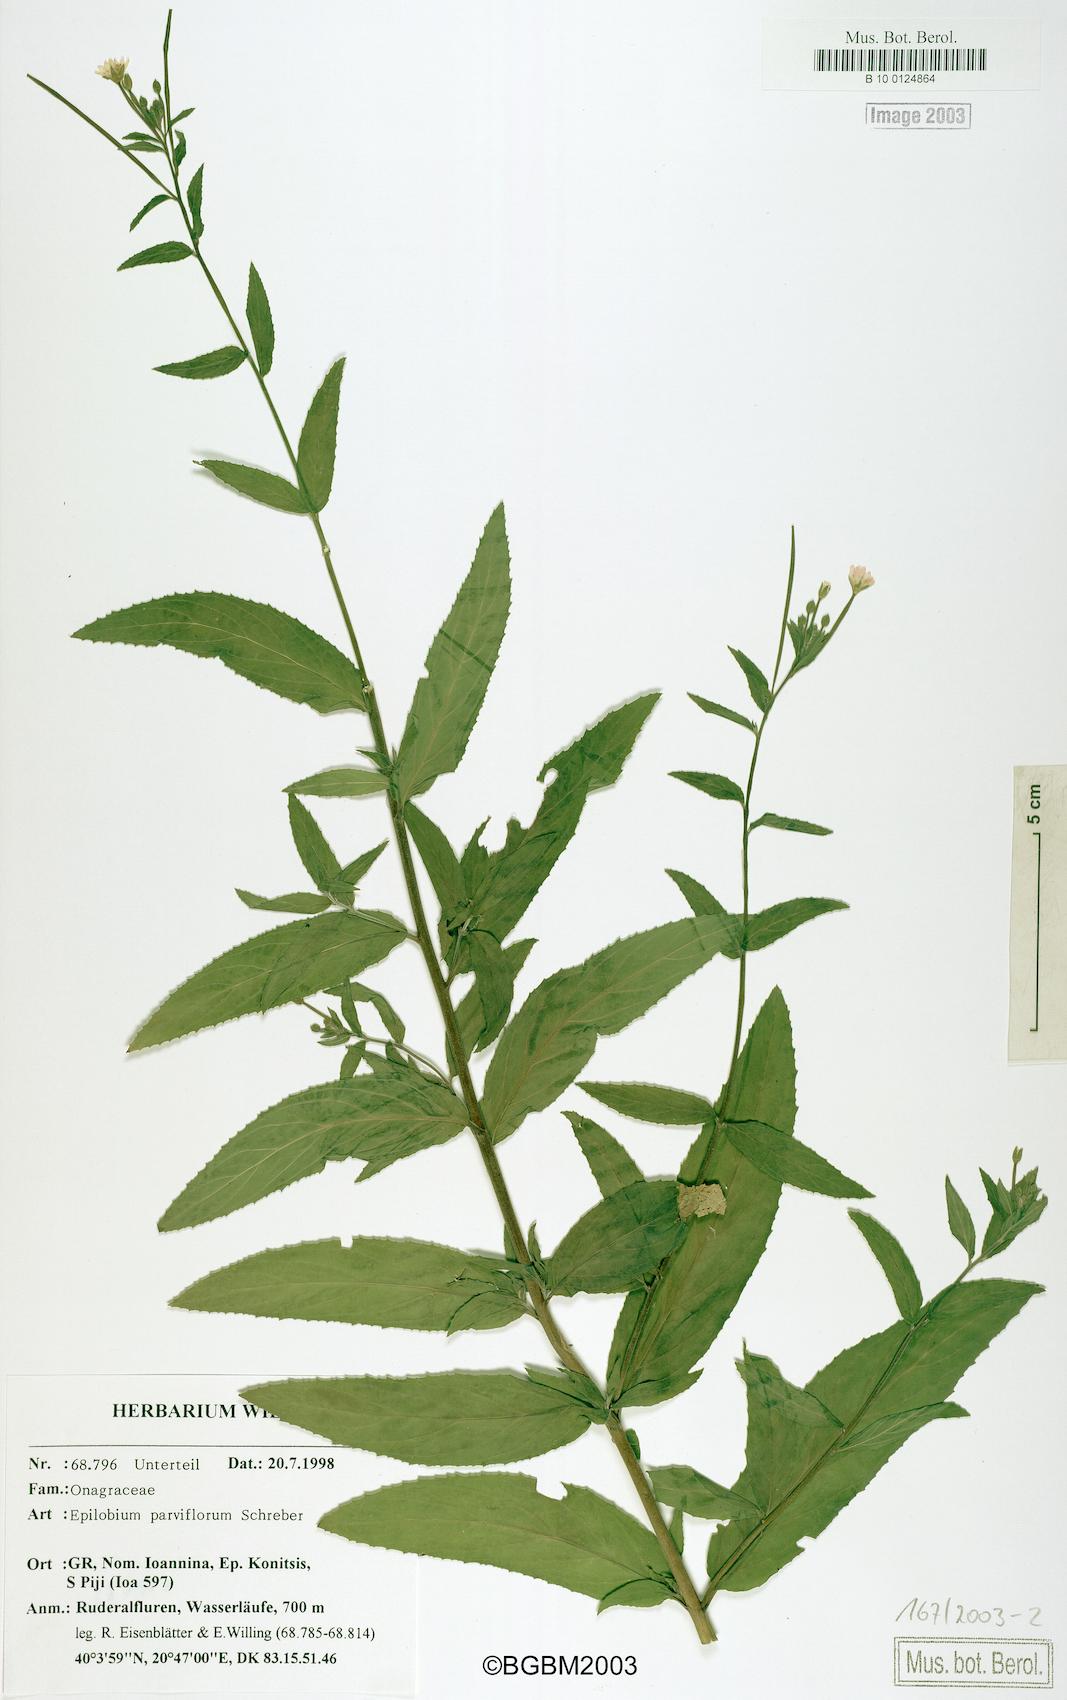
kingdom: Plantae
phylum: Tracheophyta
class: Magnoliopsida
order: Myrtales
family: Onagraceae
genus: Epilobium
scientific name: Epilobium parviflorum
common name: Hoary willowherb
